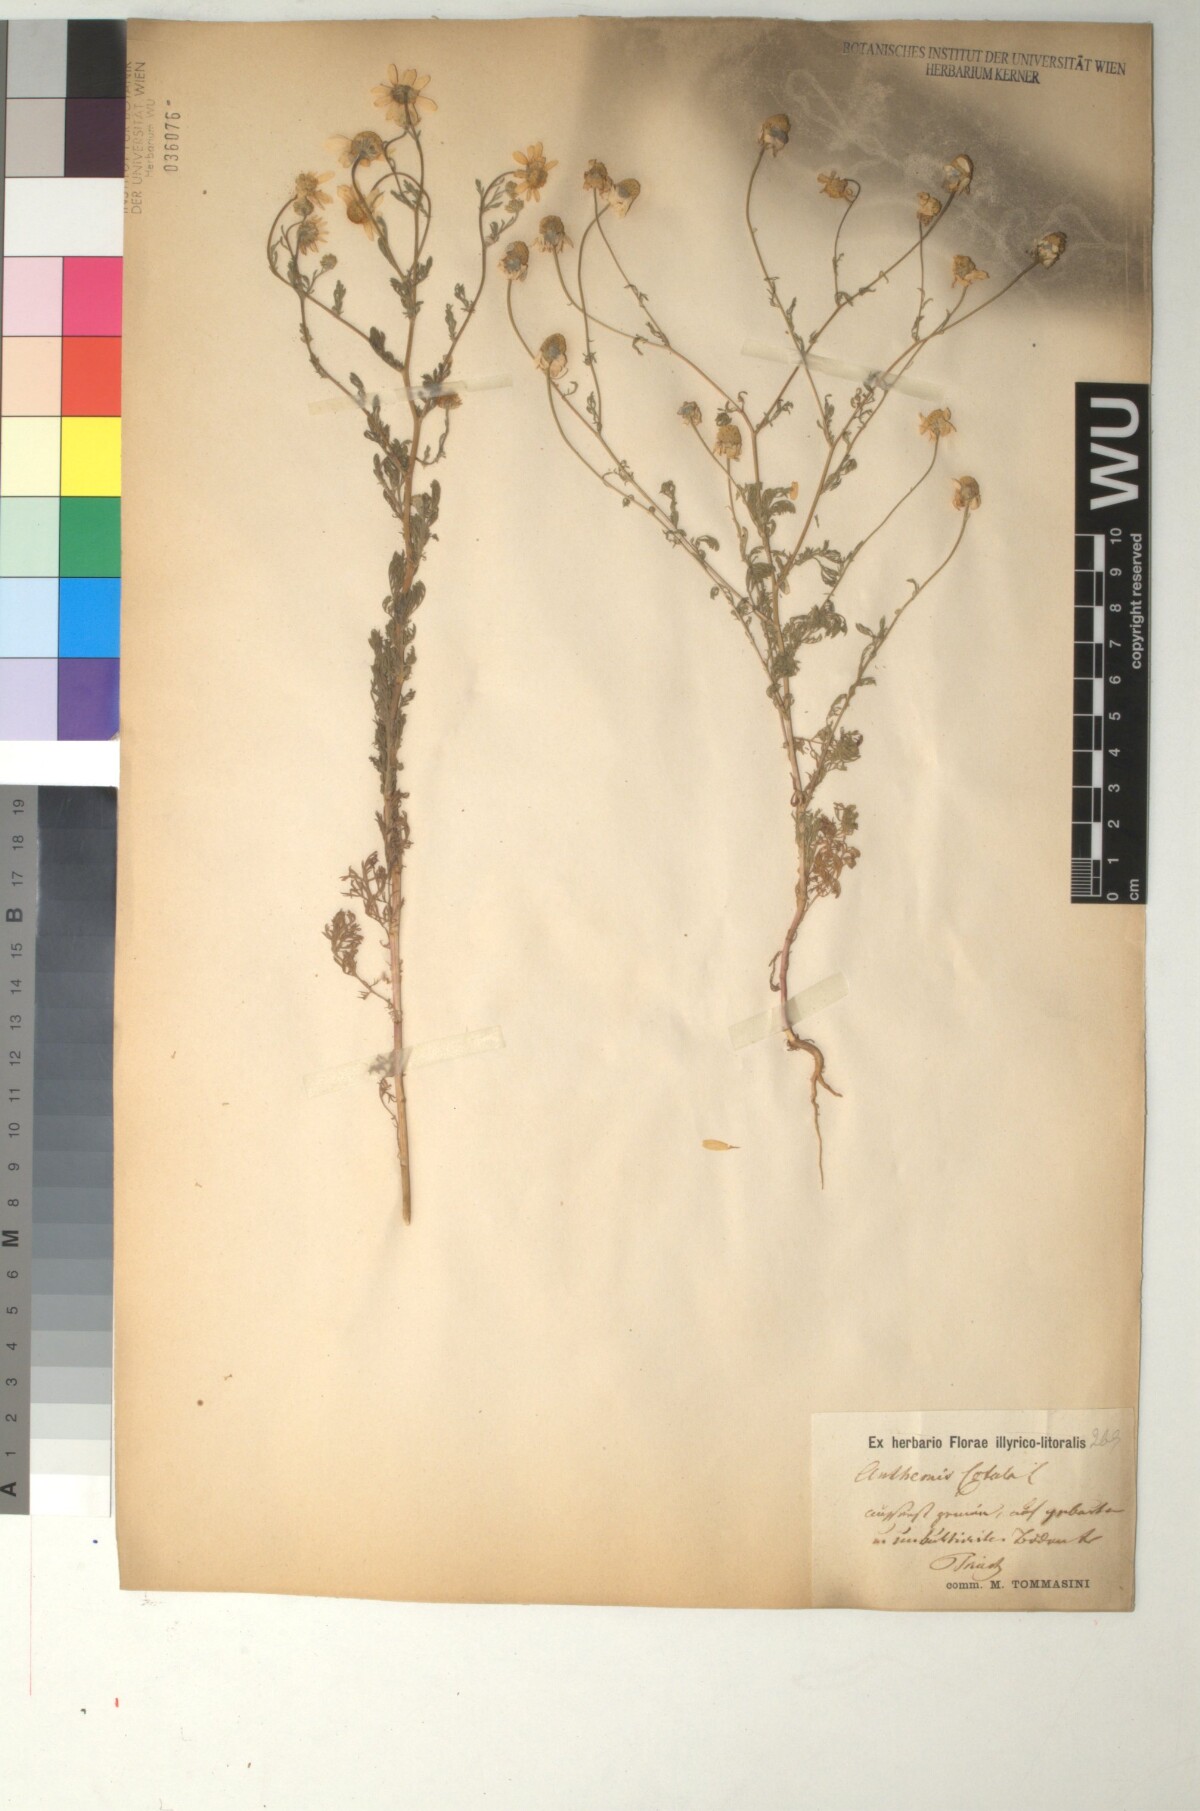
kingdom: Plantae
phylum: Tracheophyta
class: Magnoliopsida
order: Asterales
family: Asteraceae
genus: Anthemis
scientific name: Anthemis cotula
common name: Stinking chamomile
